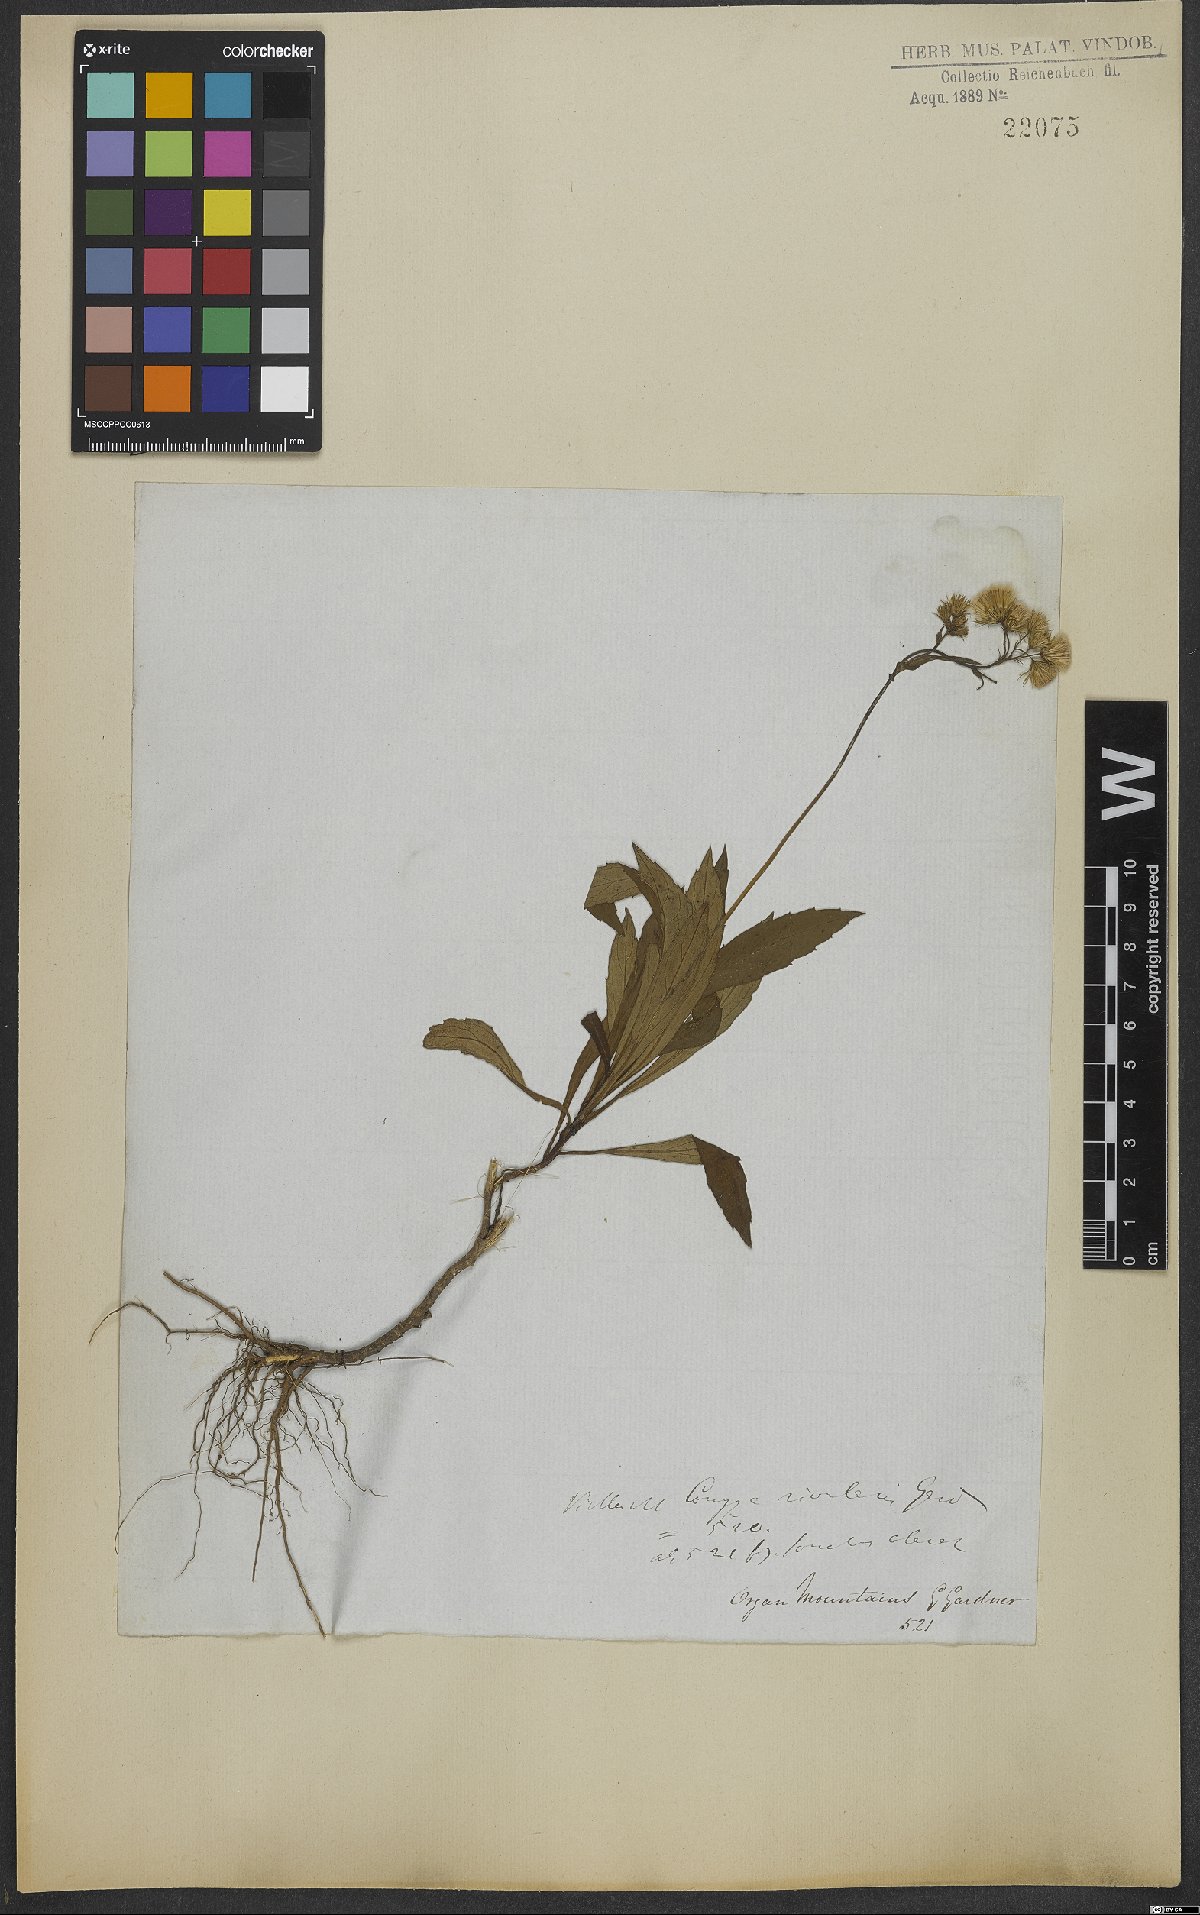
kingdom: Plantae
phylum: Tracheophyta
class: Magnoliopsida
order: Asterales
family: Asteraceae
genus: Exostigma
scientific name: Exostigma rivulare
